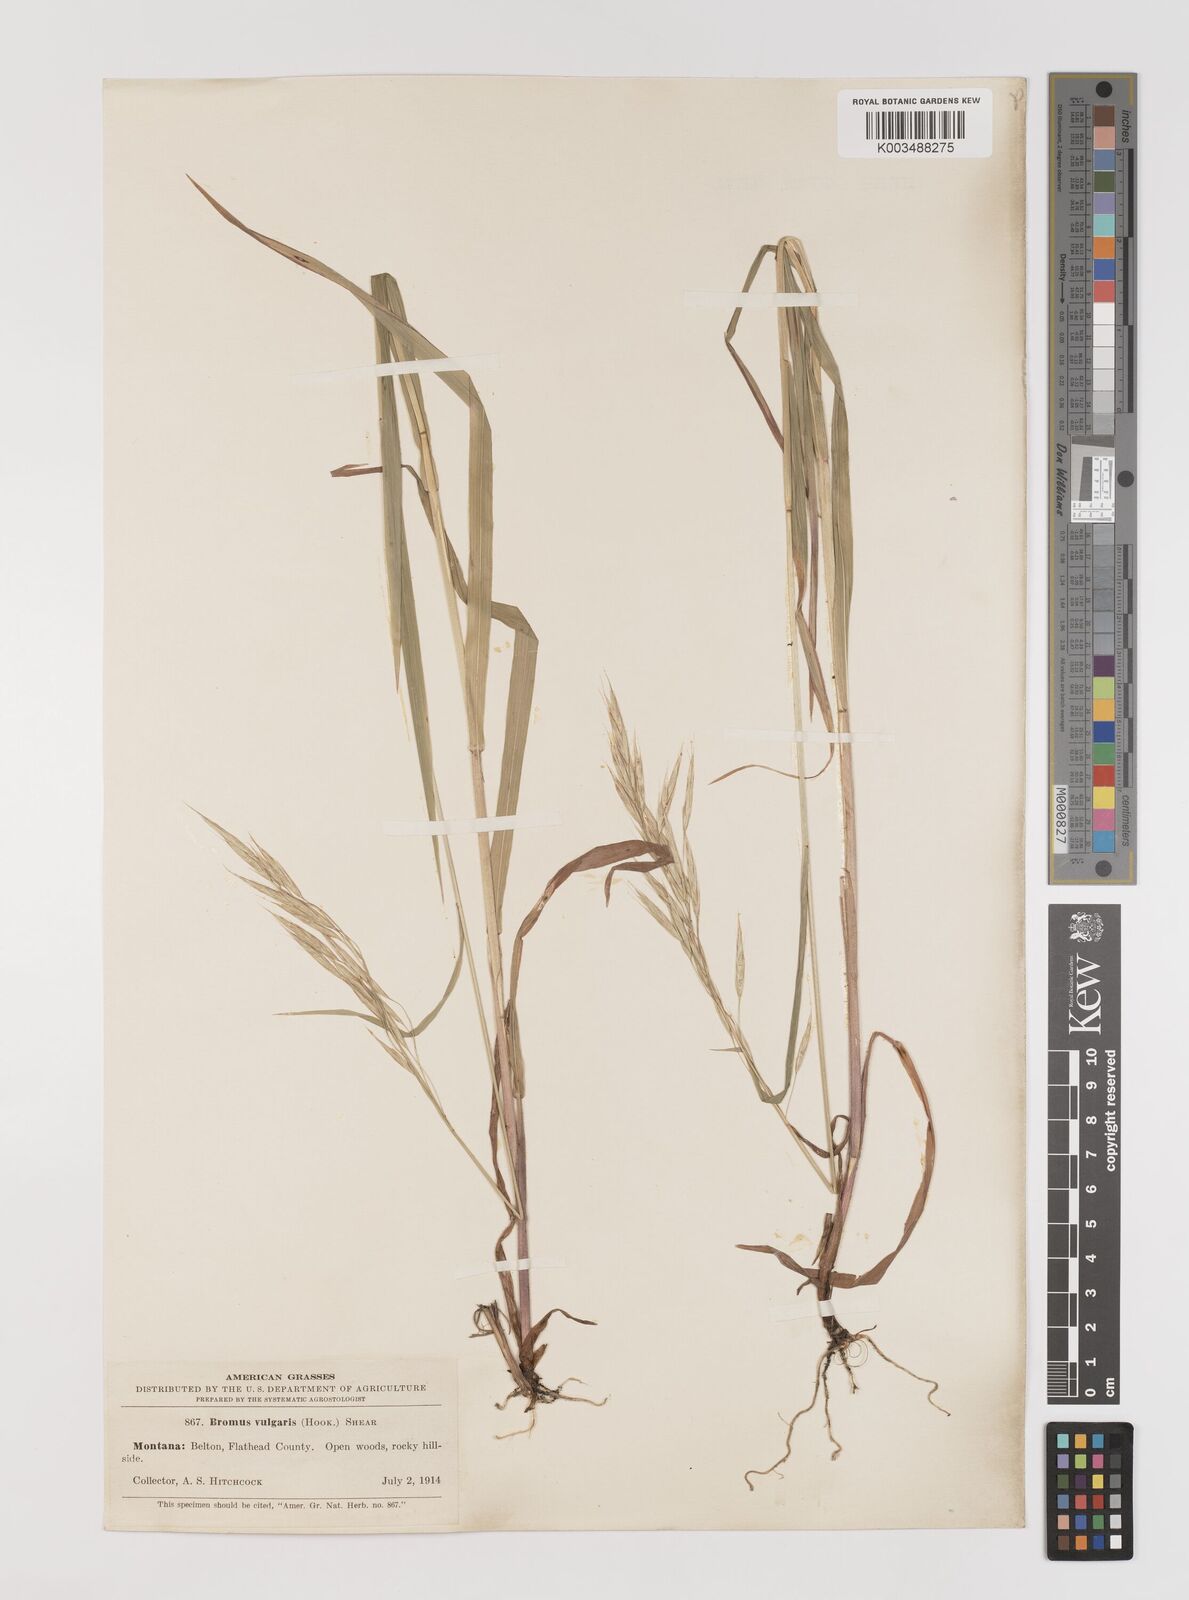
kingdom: Plantae
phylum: Tracheophyta
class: Liliopsida
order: Poales
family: Poaceae
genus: Bromus
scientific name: Bromus vulgaris
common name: Columbia brome
